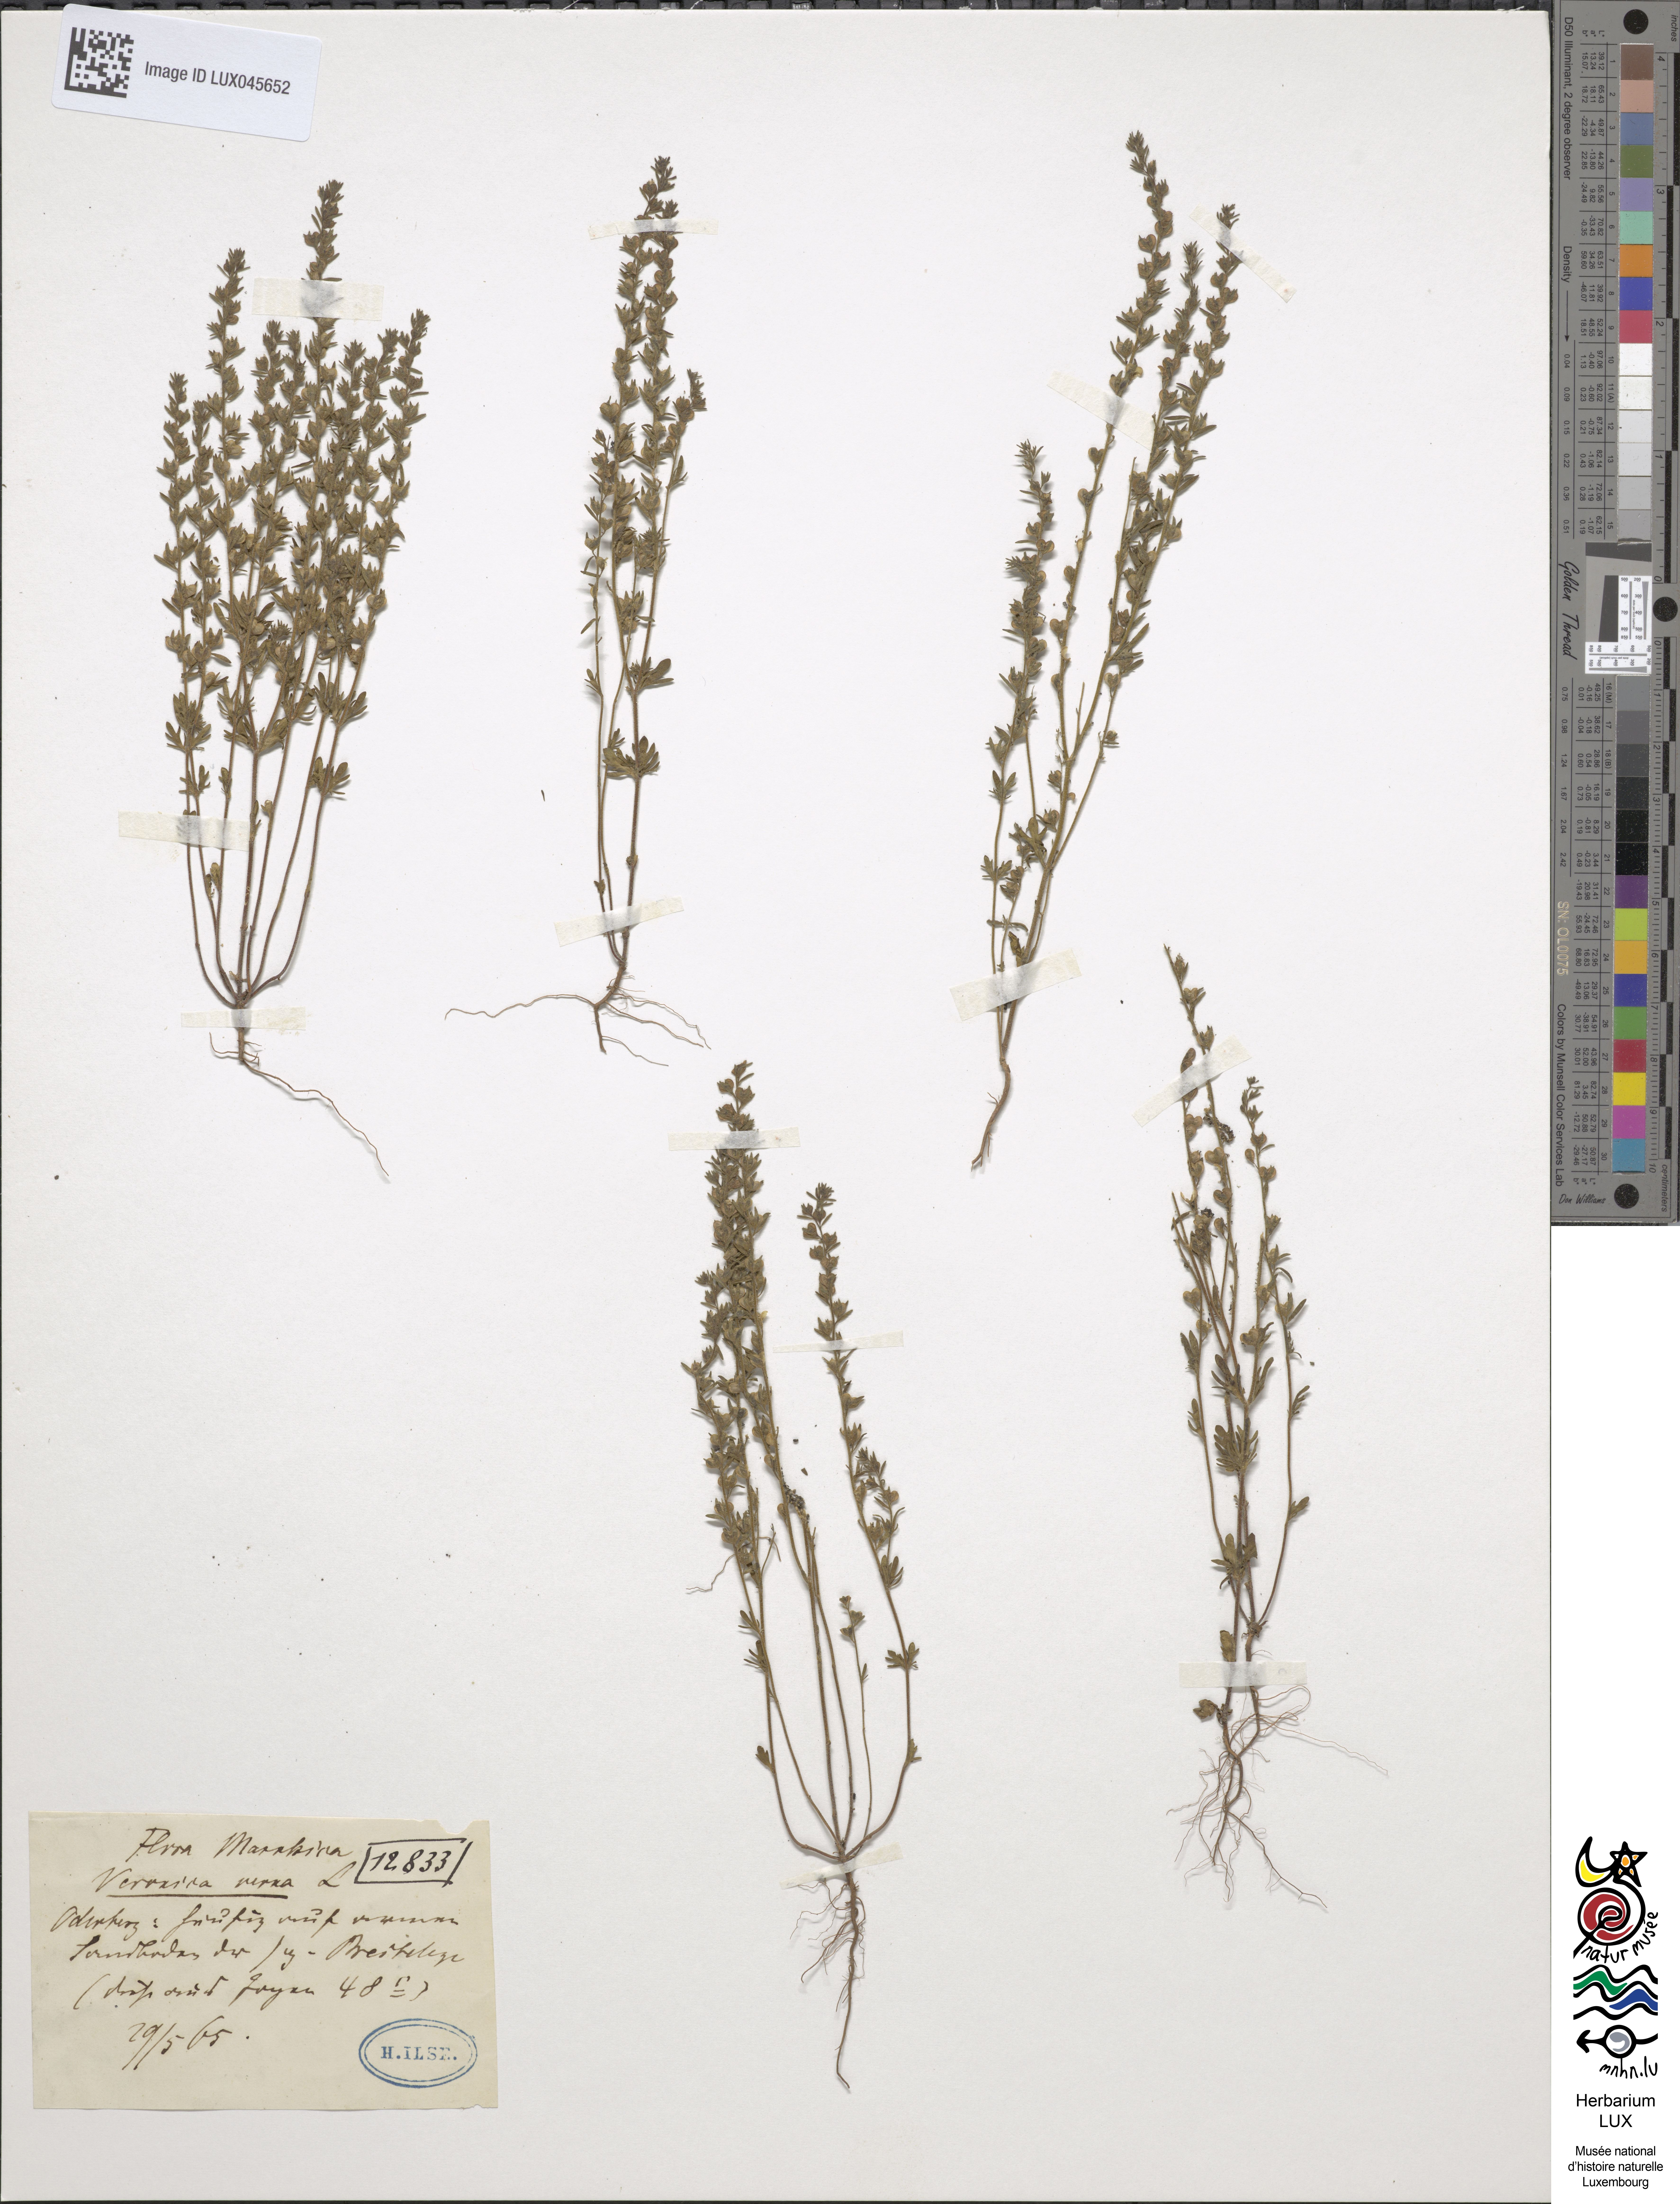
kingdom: Plantae
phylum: Tracheophyta
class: Magnoliopsida
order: Lamiales
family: Plantaginaceae
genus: Veronica
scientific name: Veronica verna
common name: Spring speedwell
